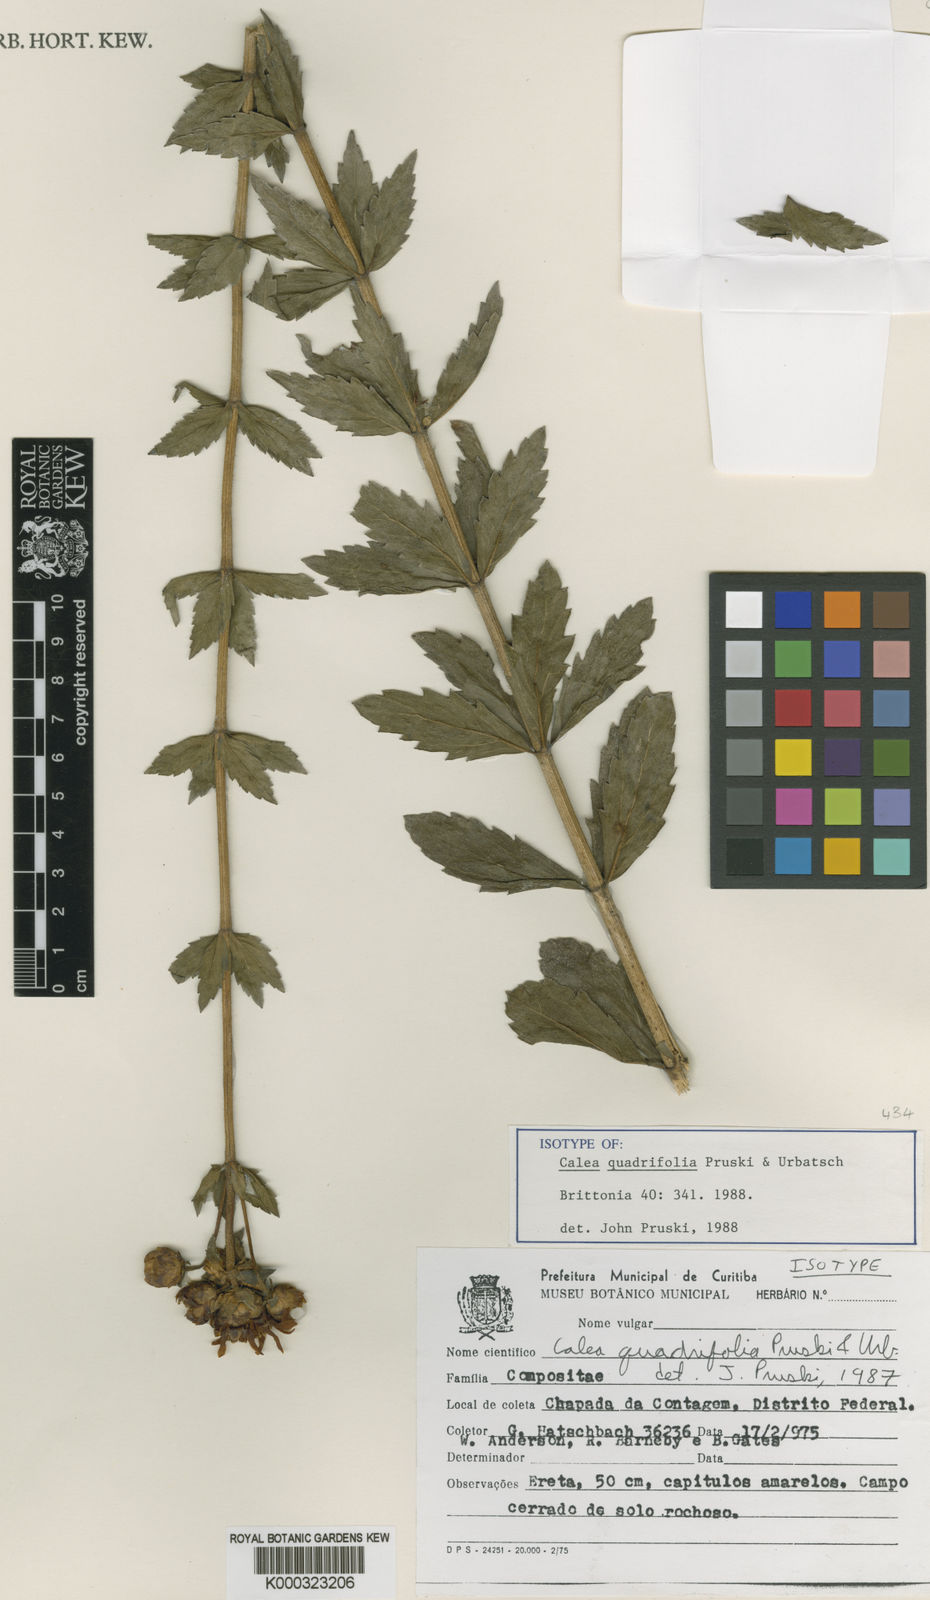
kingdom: Plantae
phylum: Tracheophyta
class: Magnoliopsida
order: Asterales
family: Asteraceae
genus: Calea
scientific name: Calea quadrifolia
